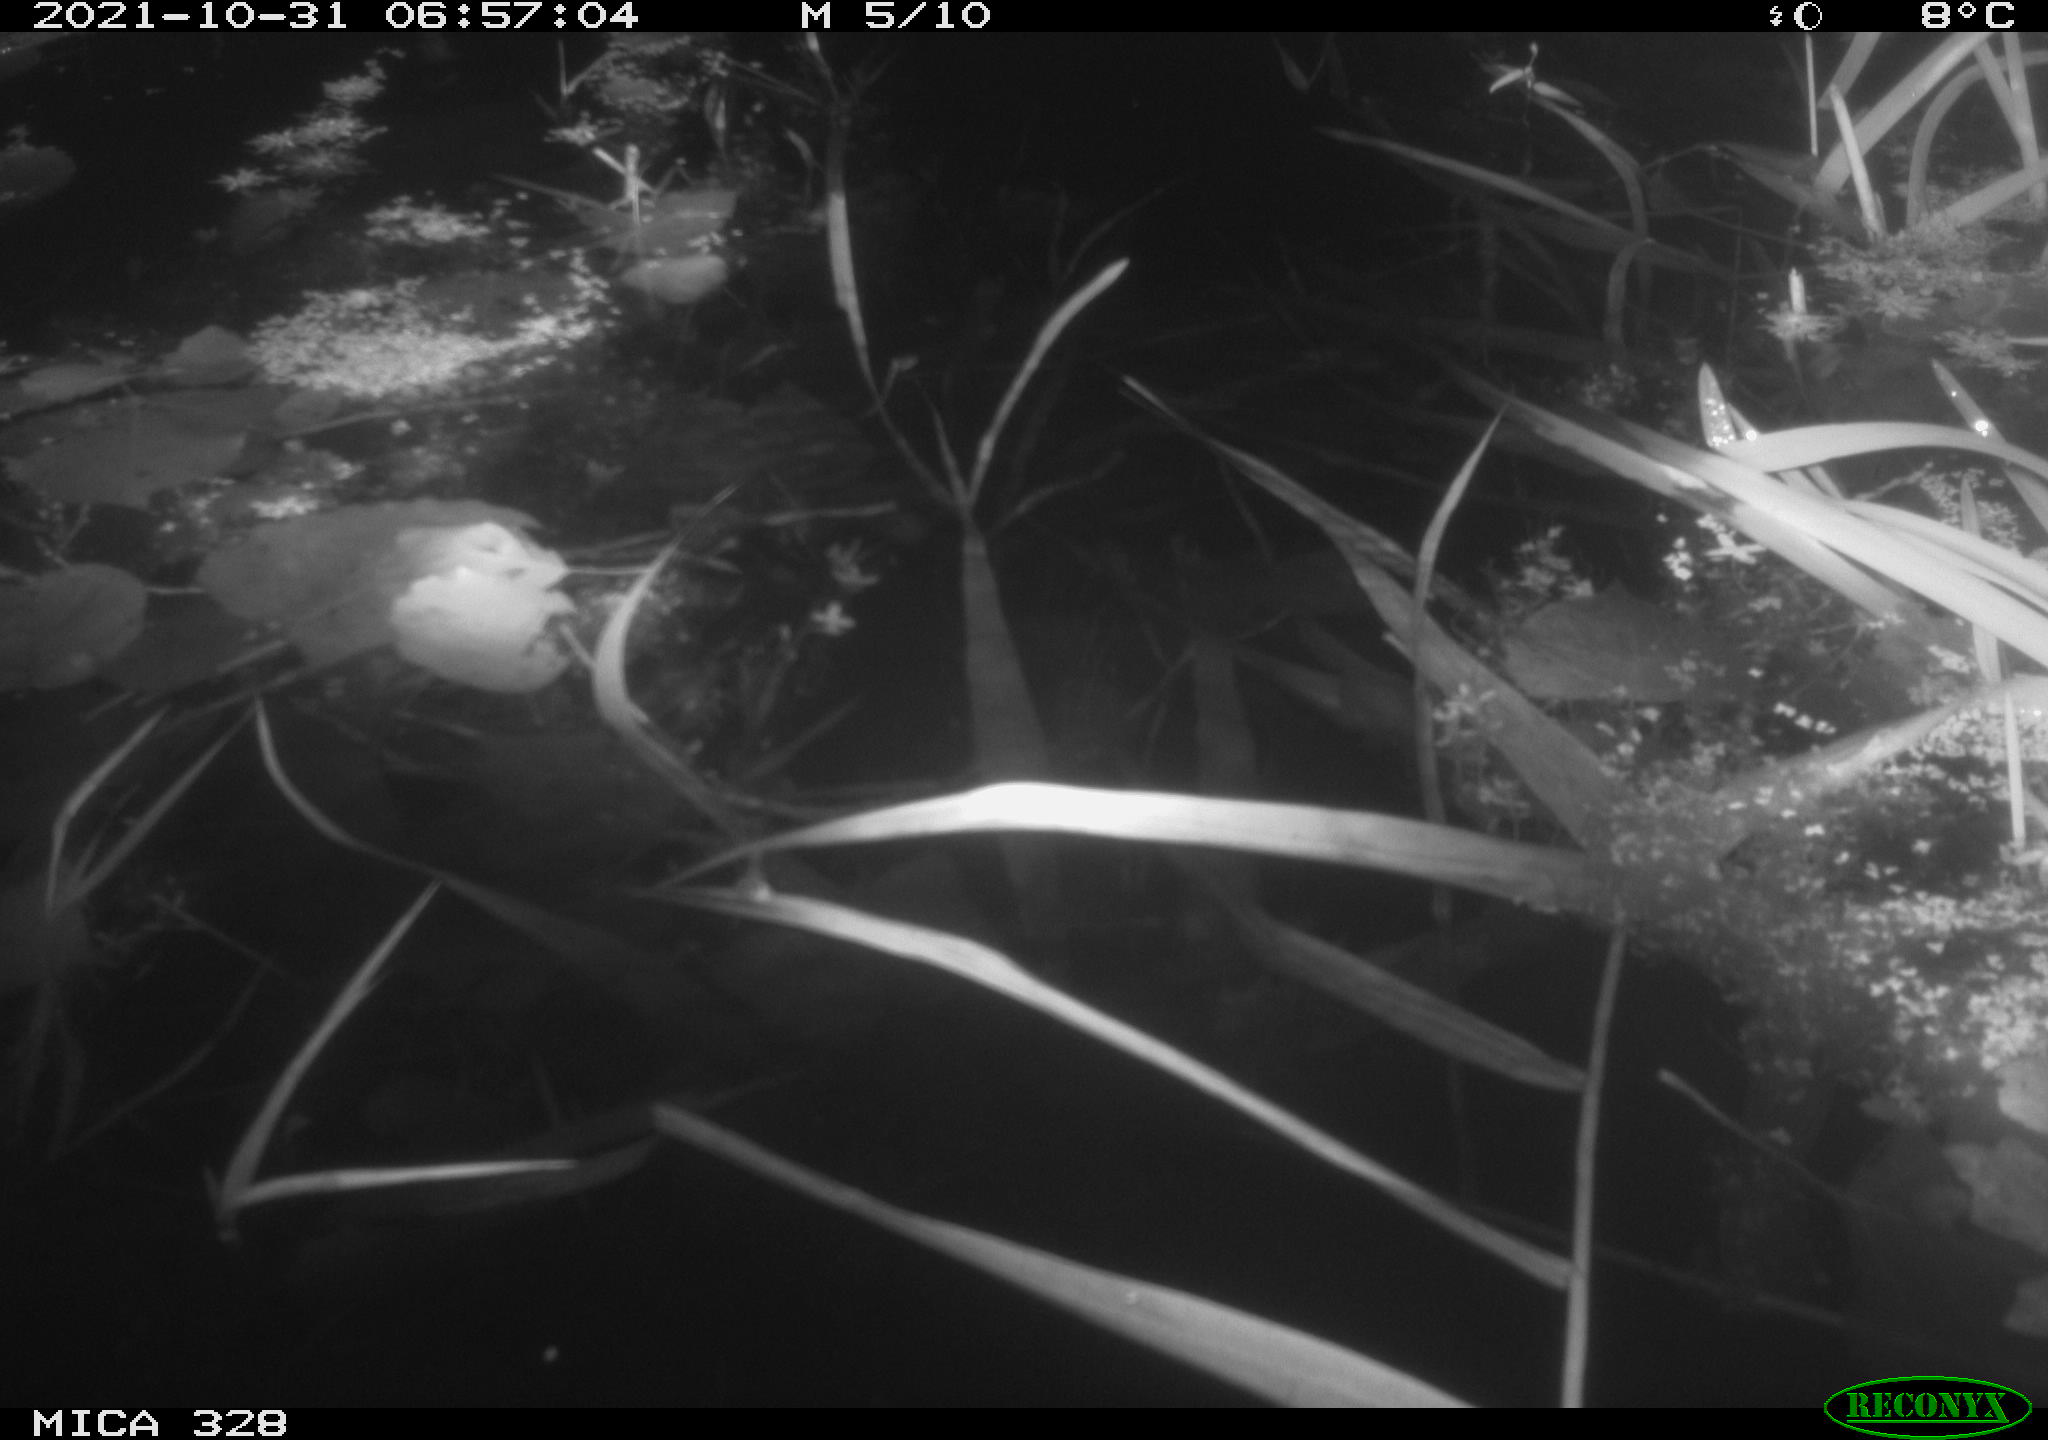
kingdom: Animalia
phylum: Chordata
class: Mammalia
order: Rodentia
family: Cricetidae
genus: Ondatra
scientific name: Ondatra zibethicus
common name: Muskrat
